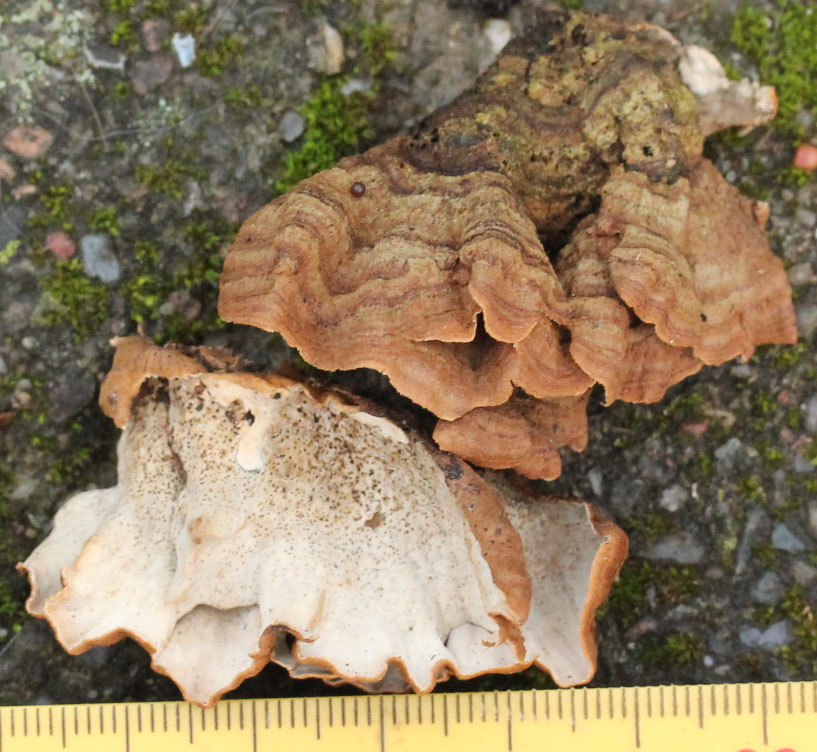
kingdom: Fungi
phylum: Basidiomycota
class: Agaricomycetes
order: Russulales
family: Hericiaceae
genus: Laxitextum
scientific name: Laxitextum bicolor
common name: tvefarvet filtskind
